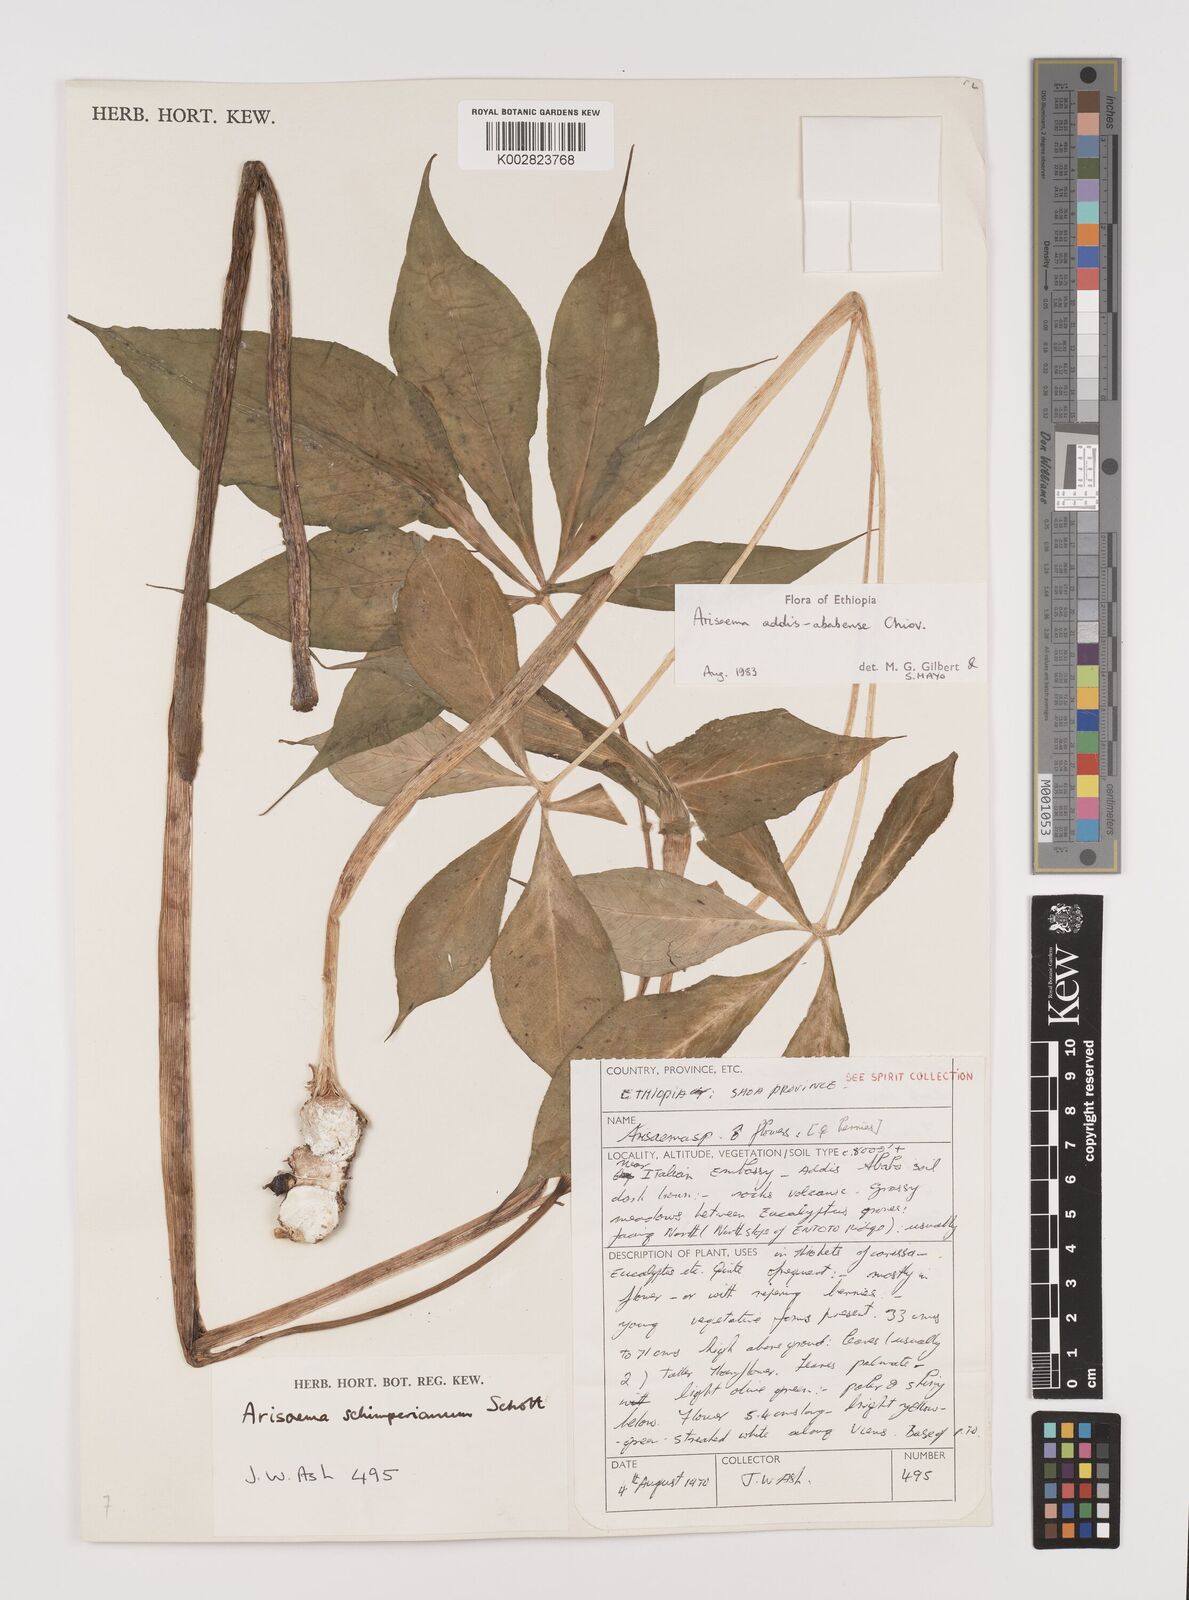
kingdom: Plantae
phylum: Tracheophyta
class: Liliopsida
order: Alismatales
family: Araceae
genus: Arisaema
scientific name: Arisaema schimperianum
